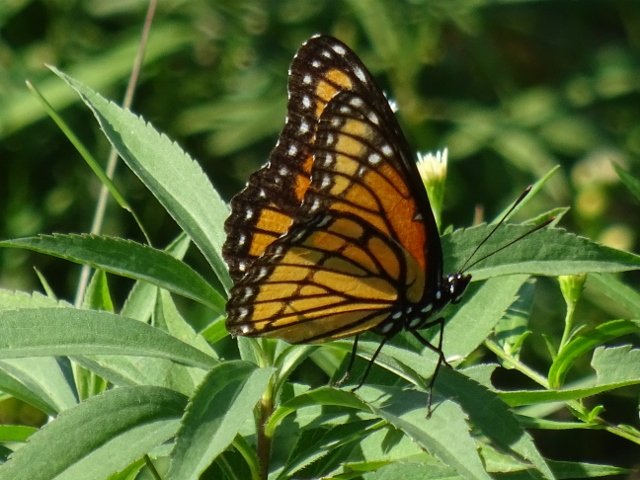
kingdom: Animalia
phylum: Arthropoda
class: Insecta
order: Lepidoptera
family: Nymphalidae
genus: Limenitis
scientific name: Limenitis archippus
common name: Viceroy
